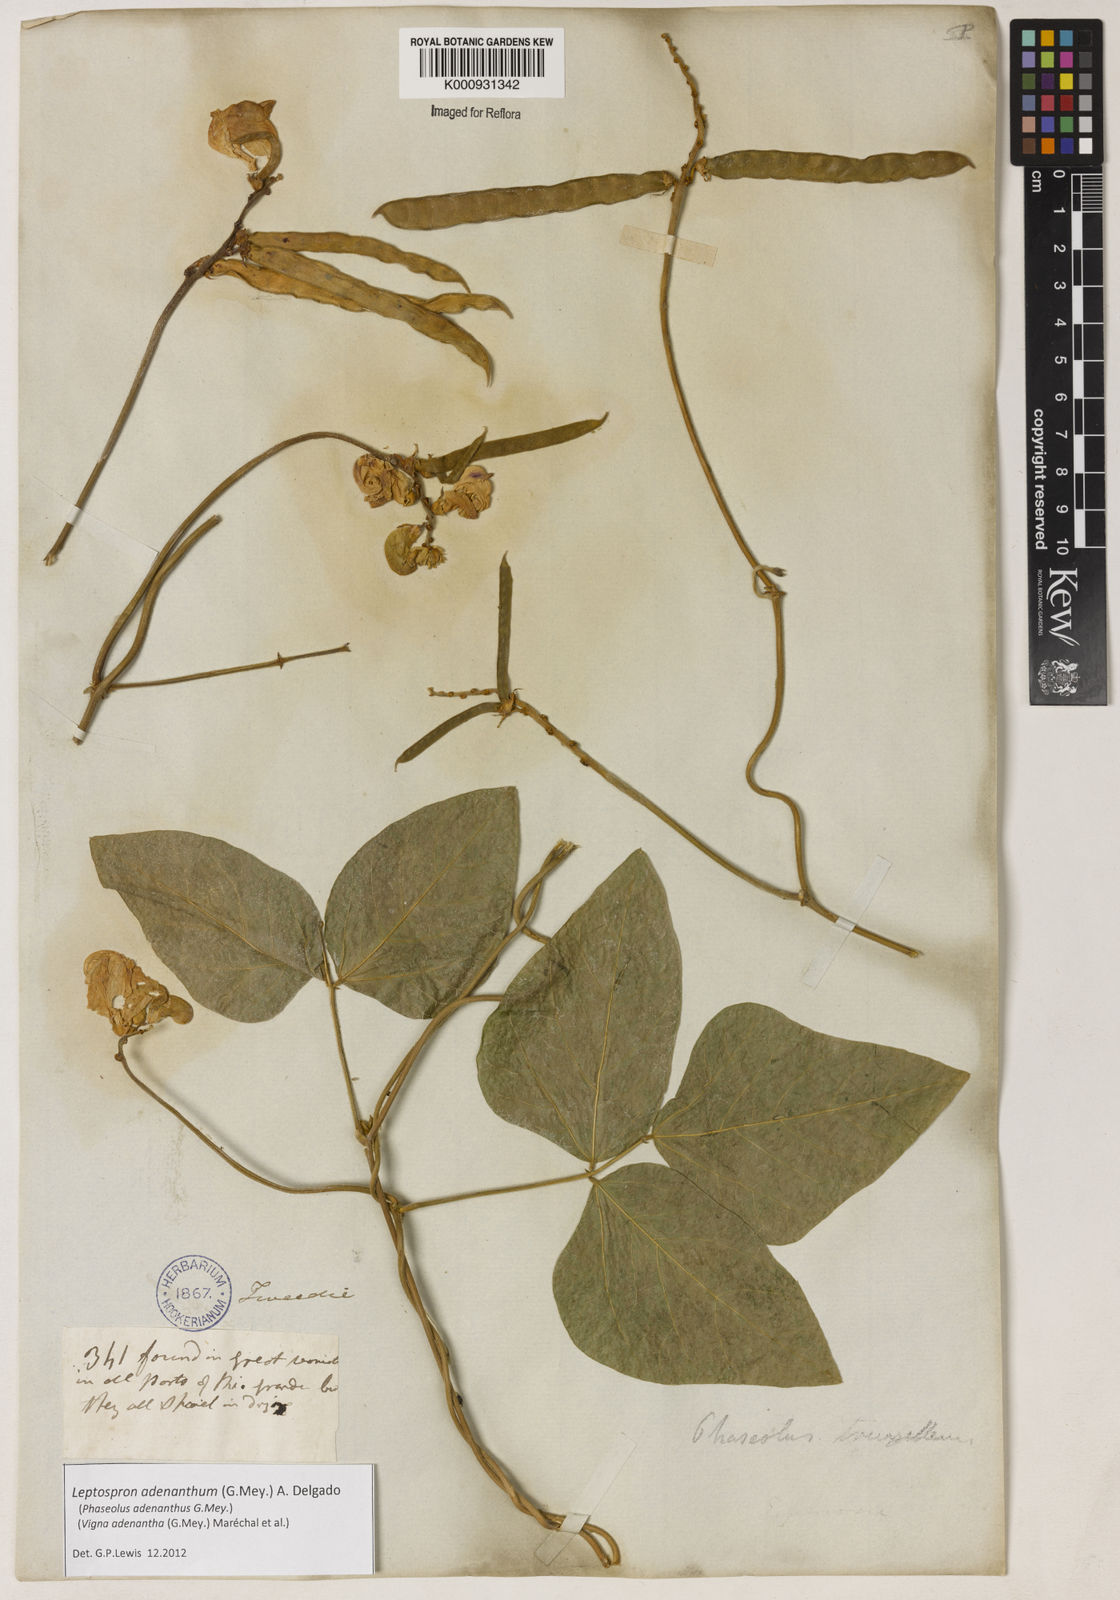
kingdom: Plantae
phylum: Tracheophyta
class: Magnoliopsida
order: Fabales
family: Fabaceae
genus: Leptospron
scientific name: Leptospron adenanthum
